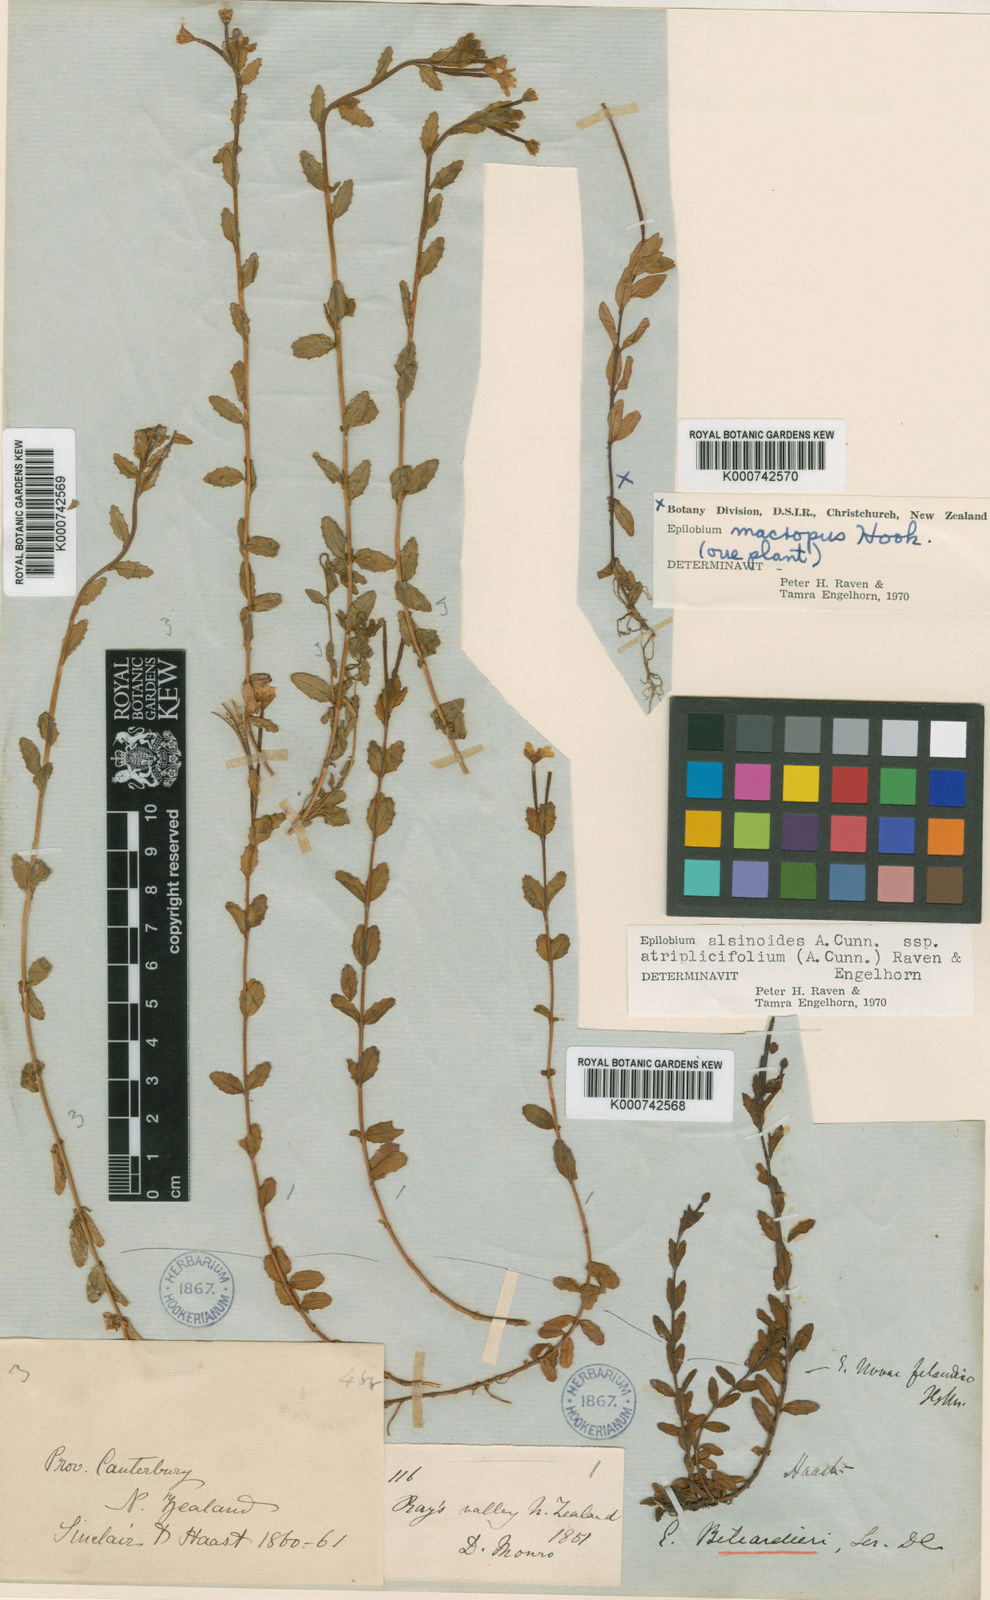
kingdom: Plantae
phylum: Tracheophyta
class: Magnoliopsida
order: Myrtales
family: Onagraceae
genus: Epilobium
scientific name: Epilobium alsinoides
